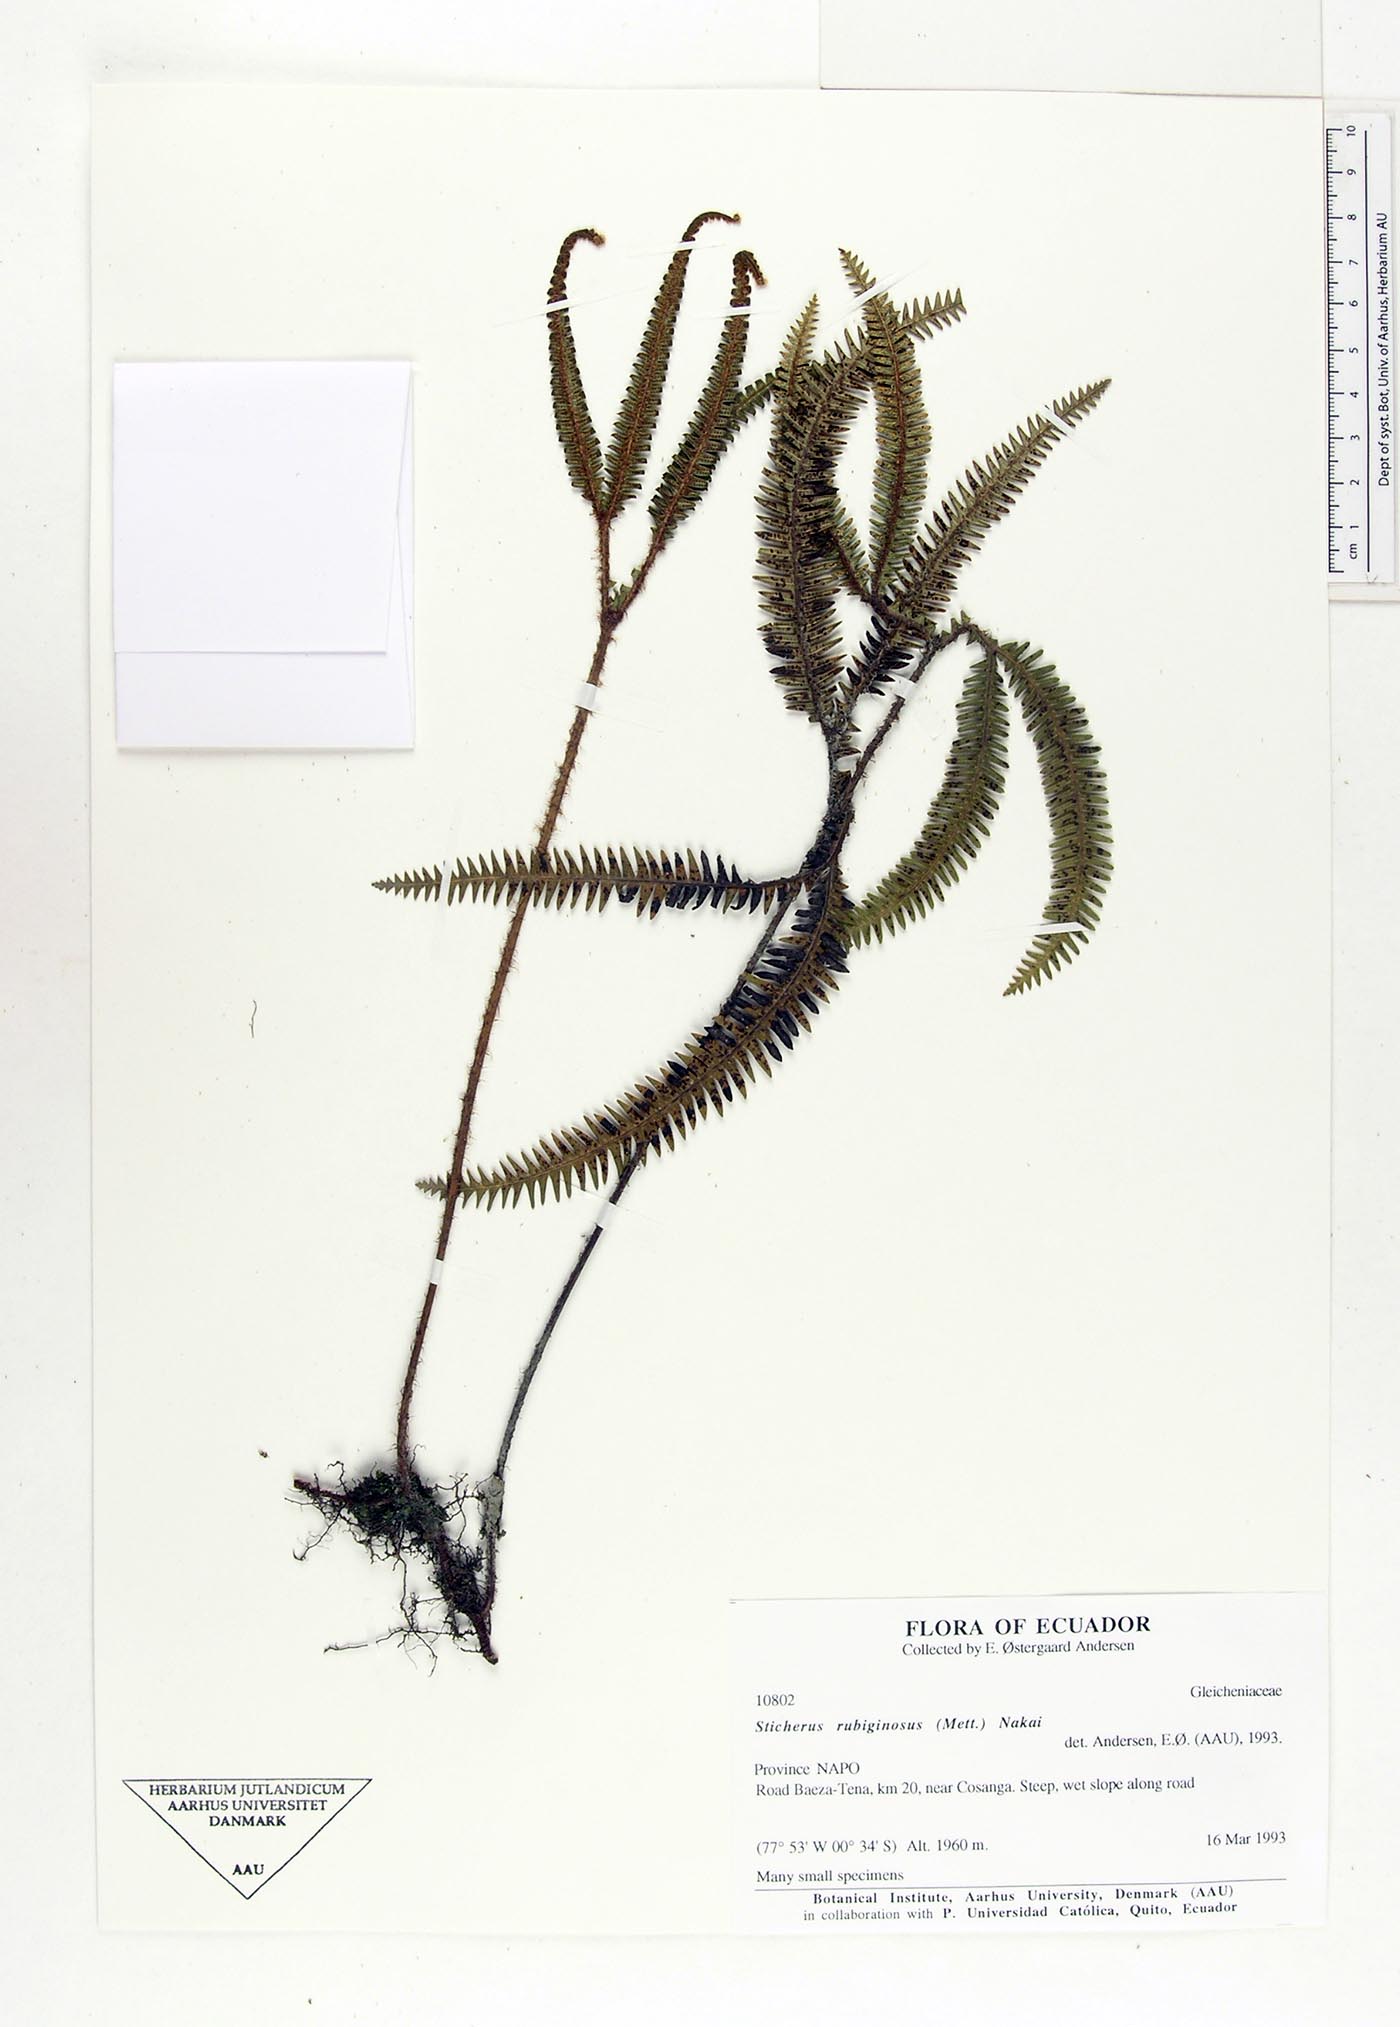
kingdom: Plantae
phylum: Tracheophyta
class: Polypodiopsida
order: Gleicheniales
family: Gleicheniaceae
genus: Sticherus
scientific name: Sticherus rubiginosus
